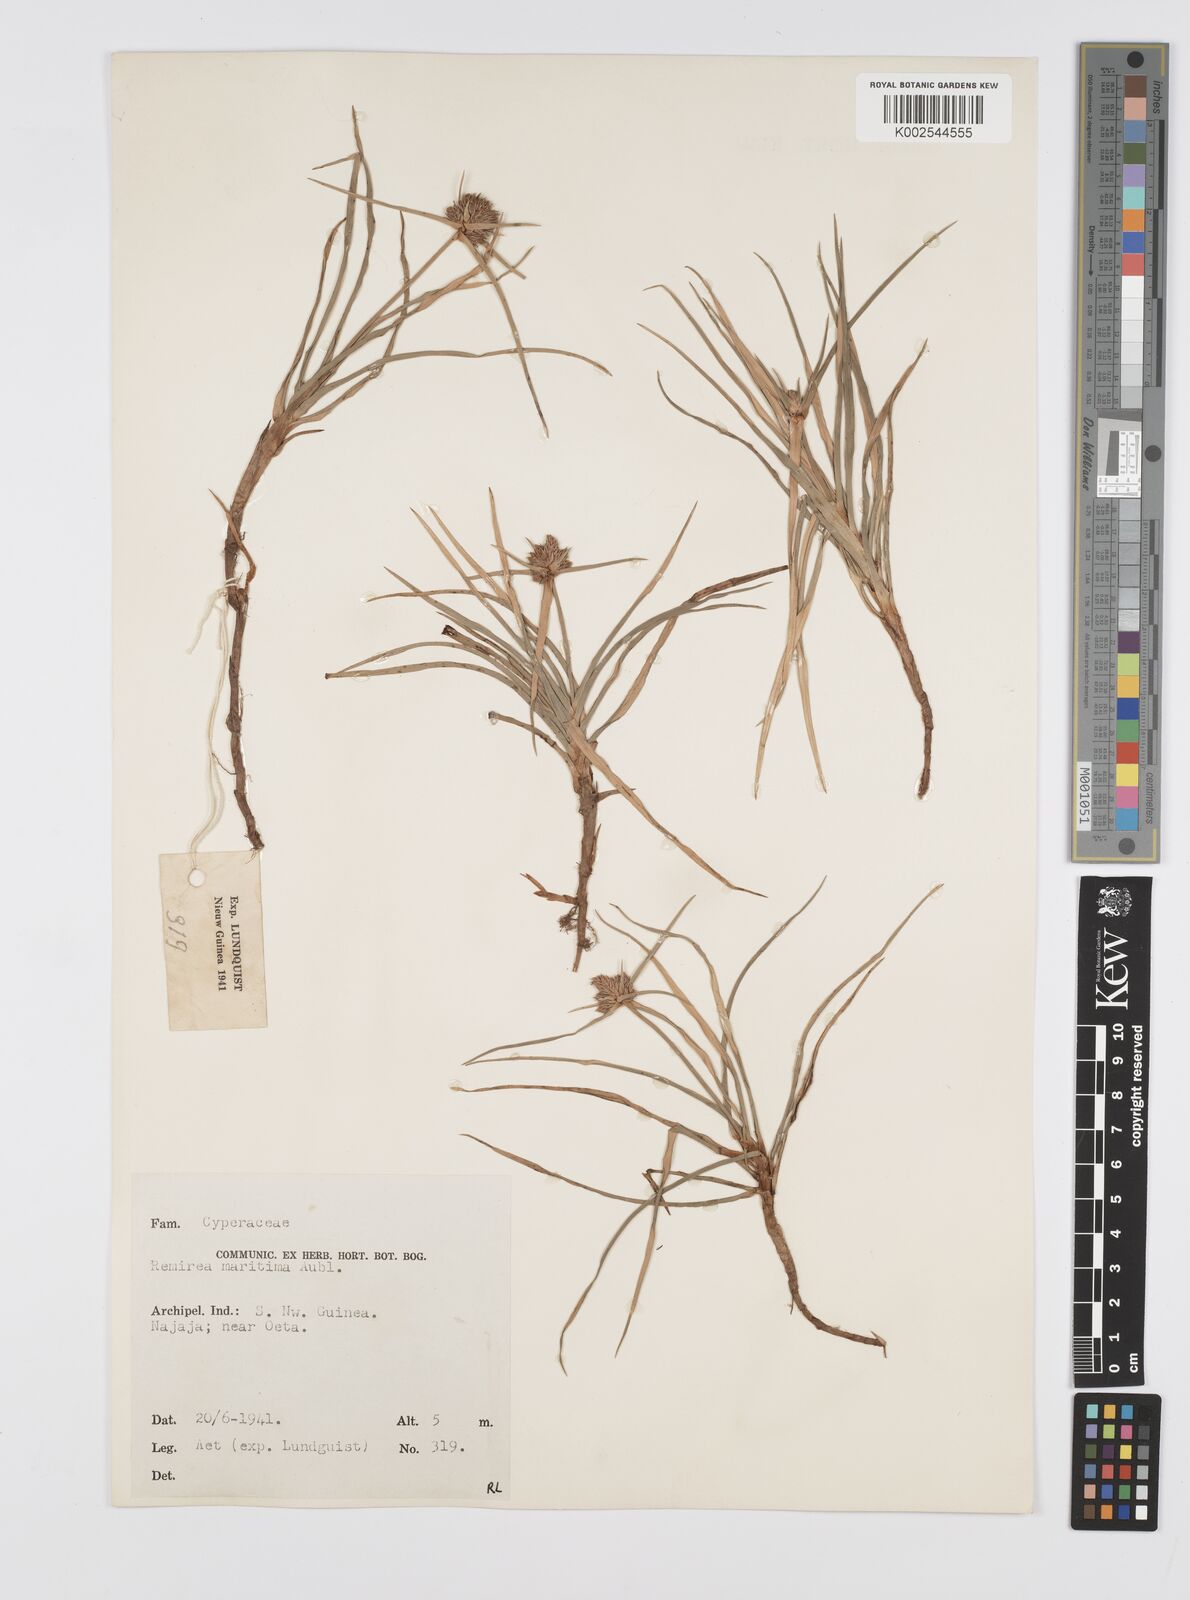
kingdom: Plantae
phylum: Tracheophyta
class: Liliopsida
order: Poales
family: Cyperaceae
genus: Cyperus
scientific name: Cyperus
